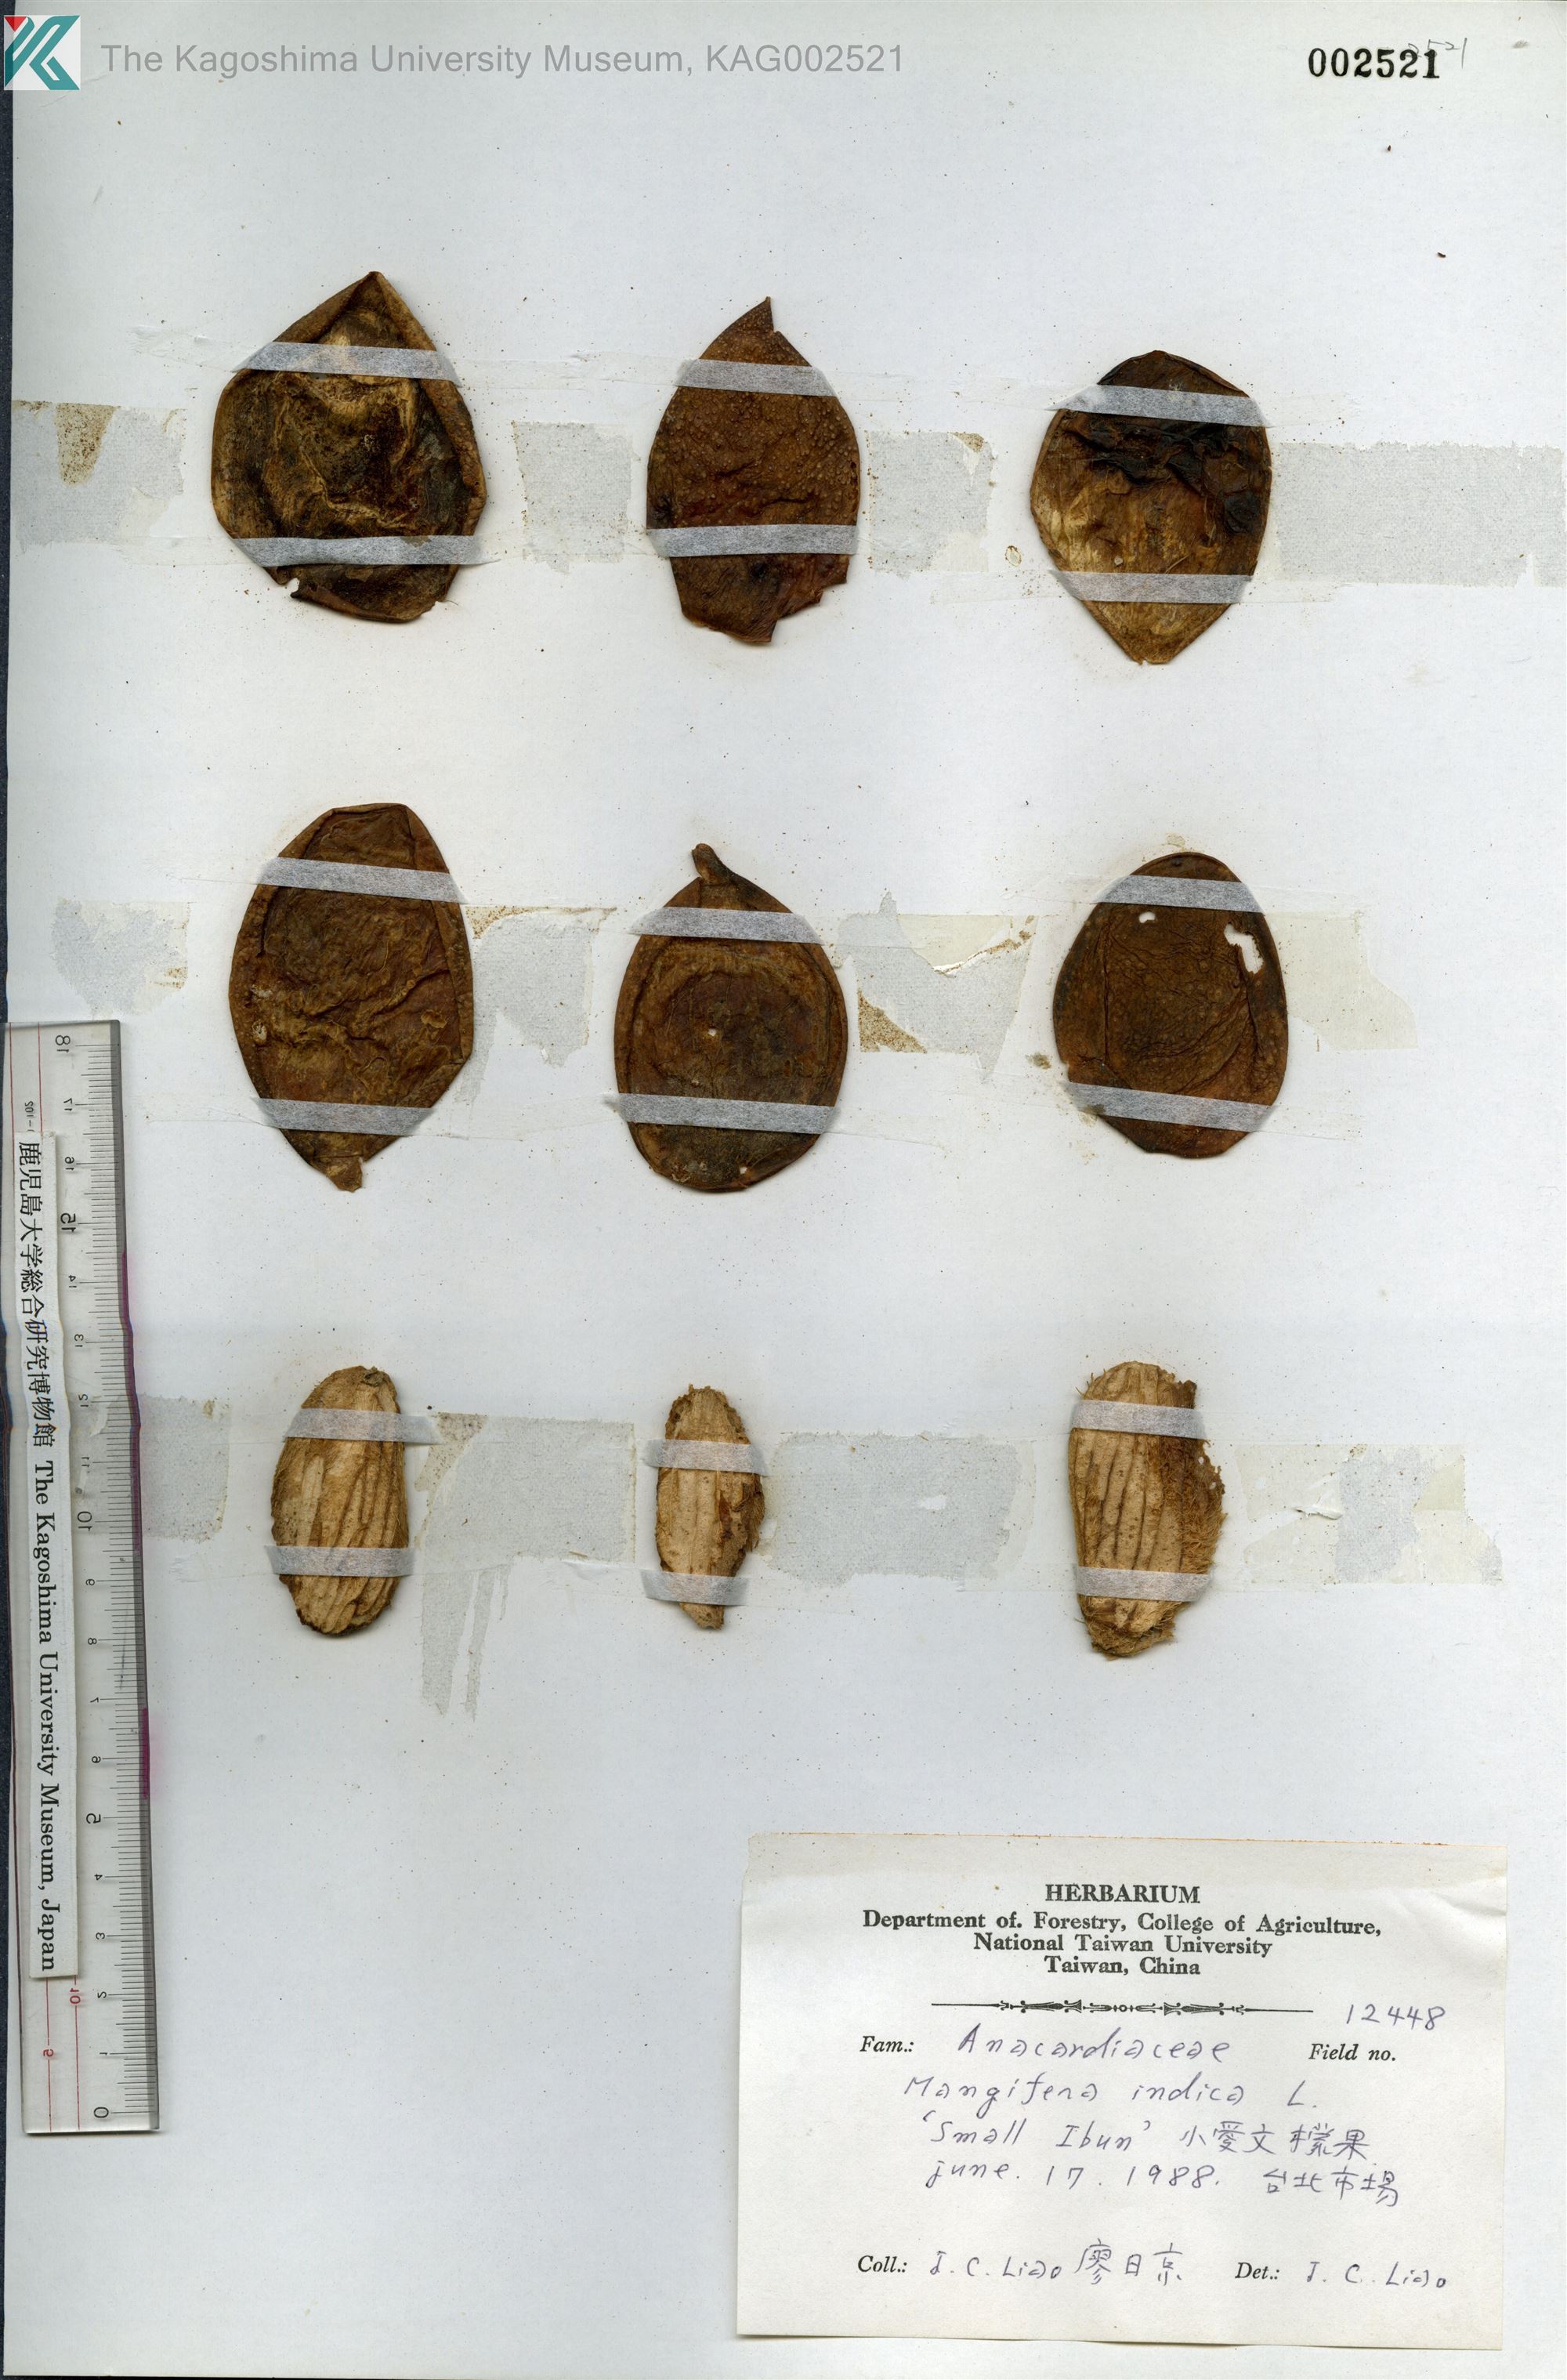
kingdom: Plantae
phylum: Tracheophyta
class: Magnoliopsida
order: Sapindales
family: Anacardiaceae
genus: Mangifera
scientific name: Mangifera indica
